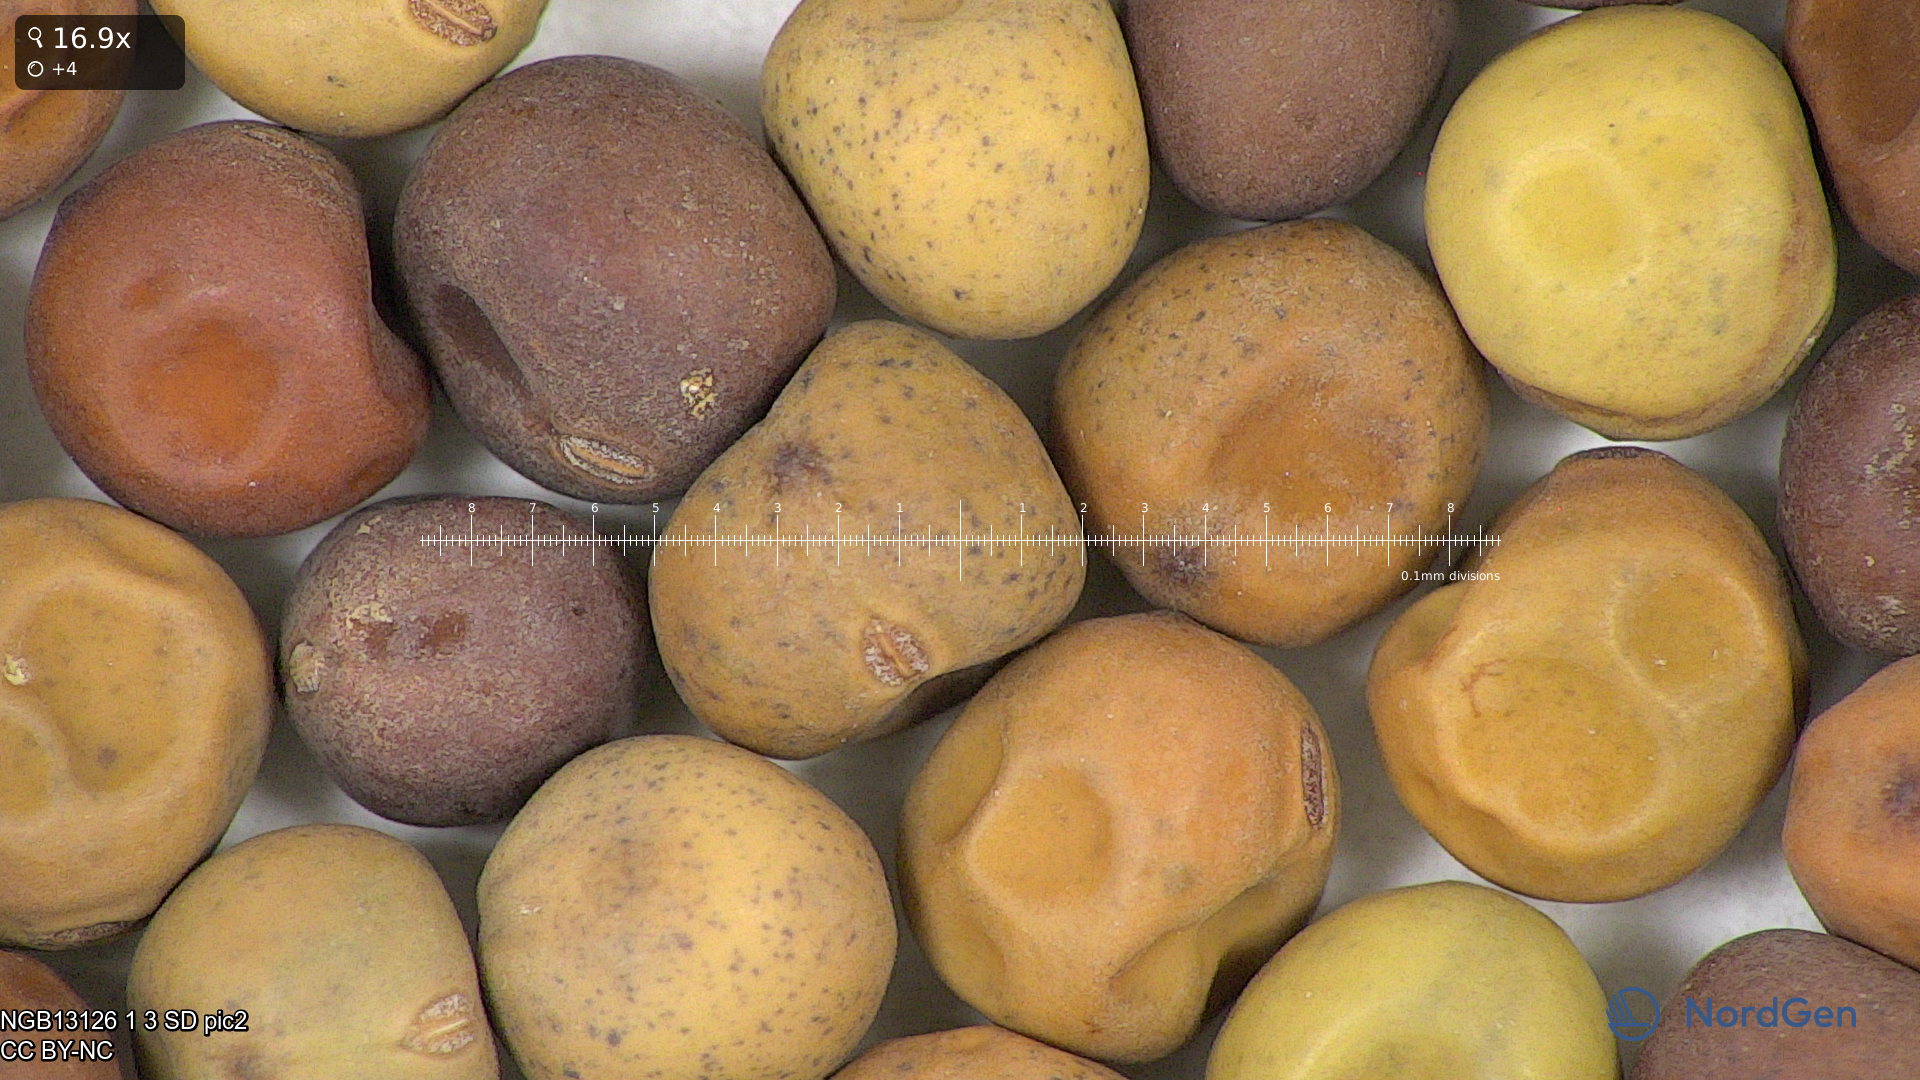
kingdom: Plantae
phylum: Tracheophyta
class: Magnoliopsida
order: Fabales
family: Fabaceae
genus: Lathyrus
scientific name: Lathyrus oleraceus
